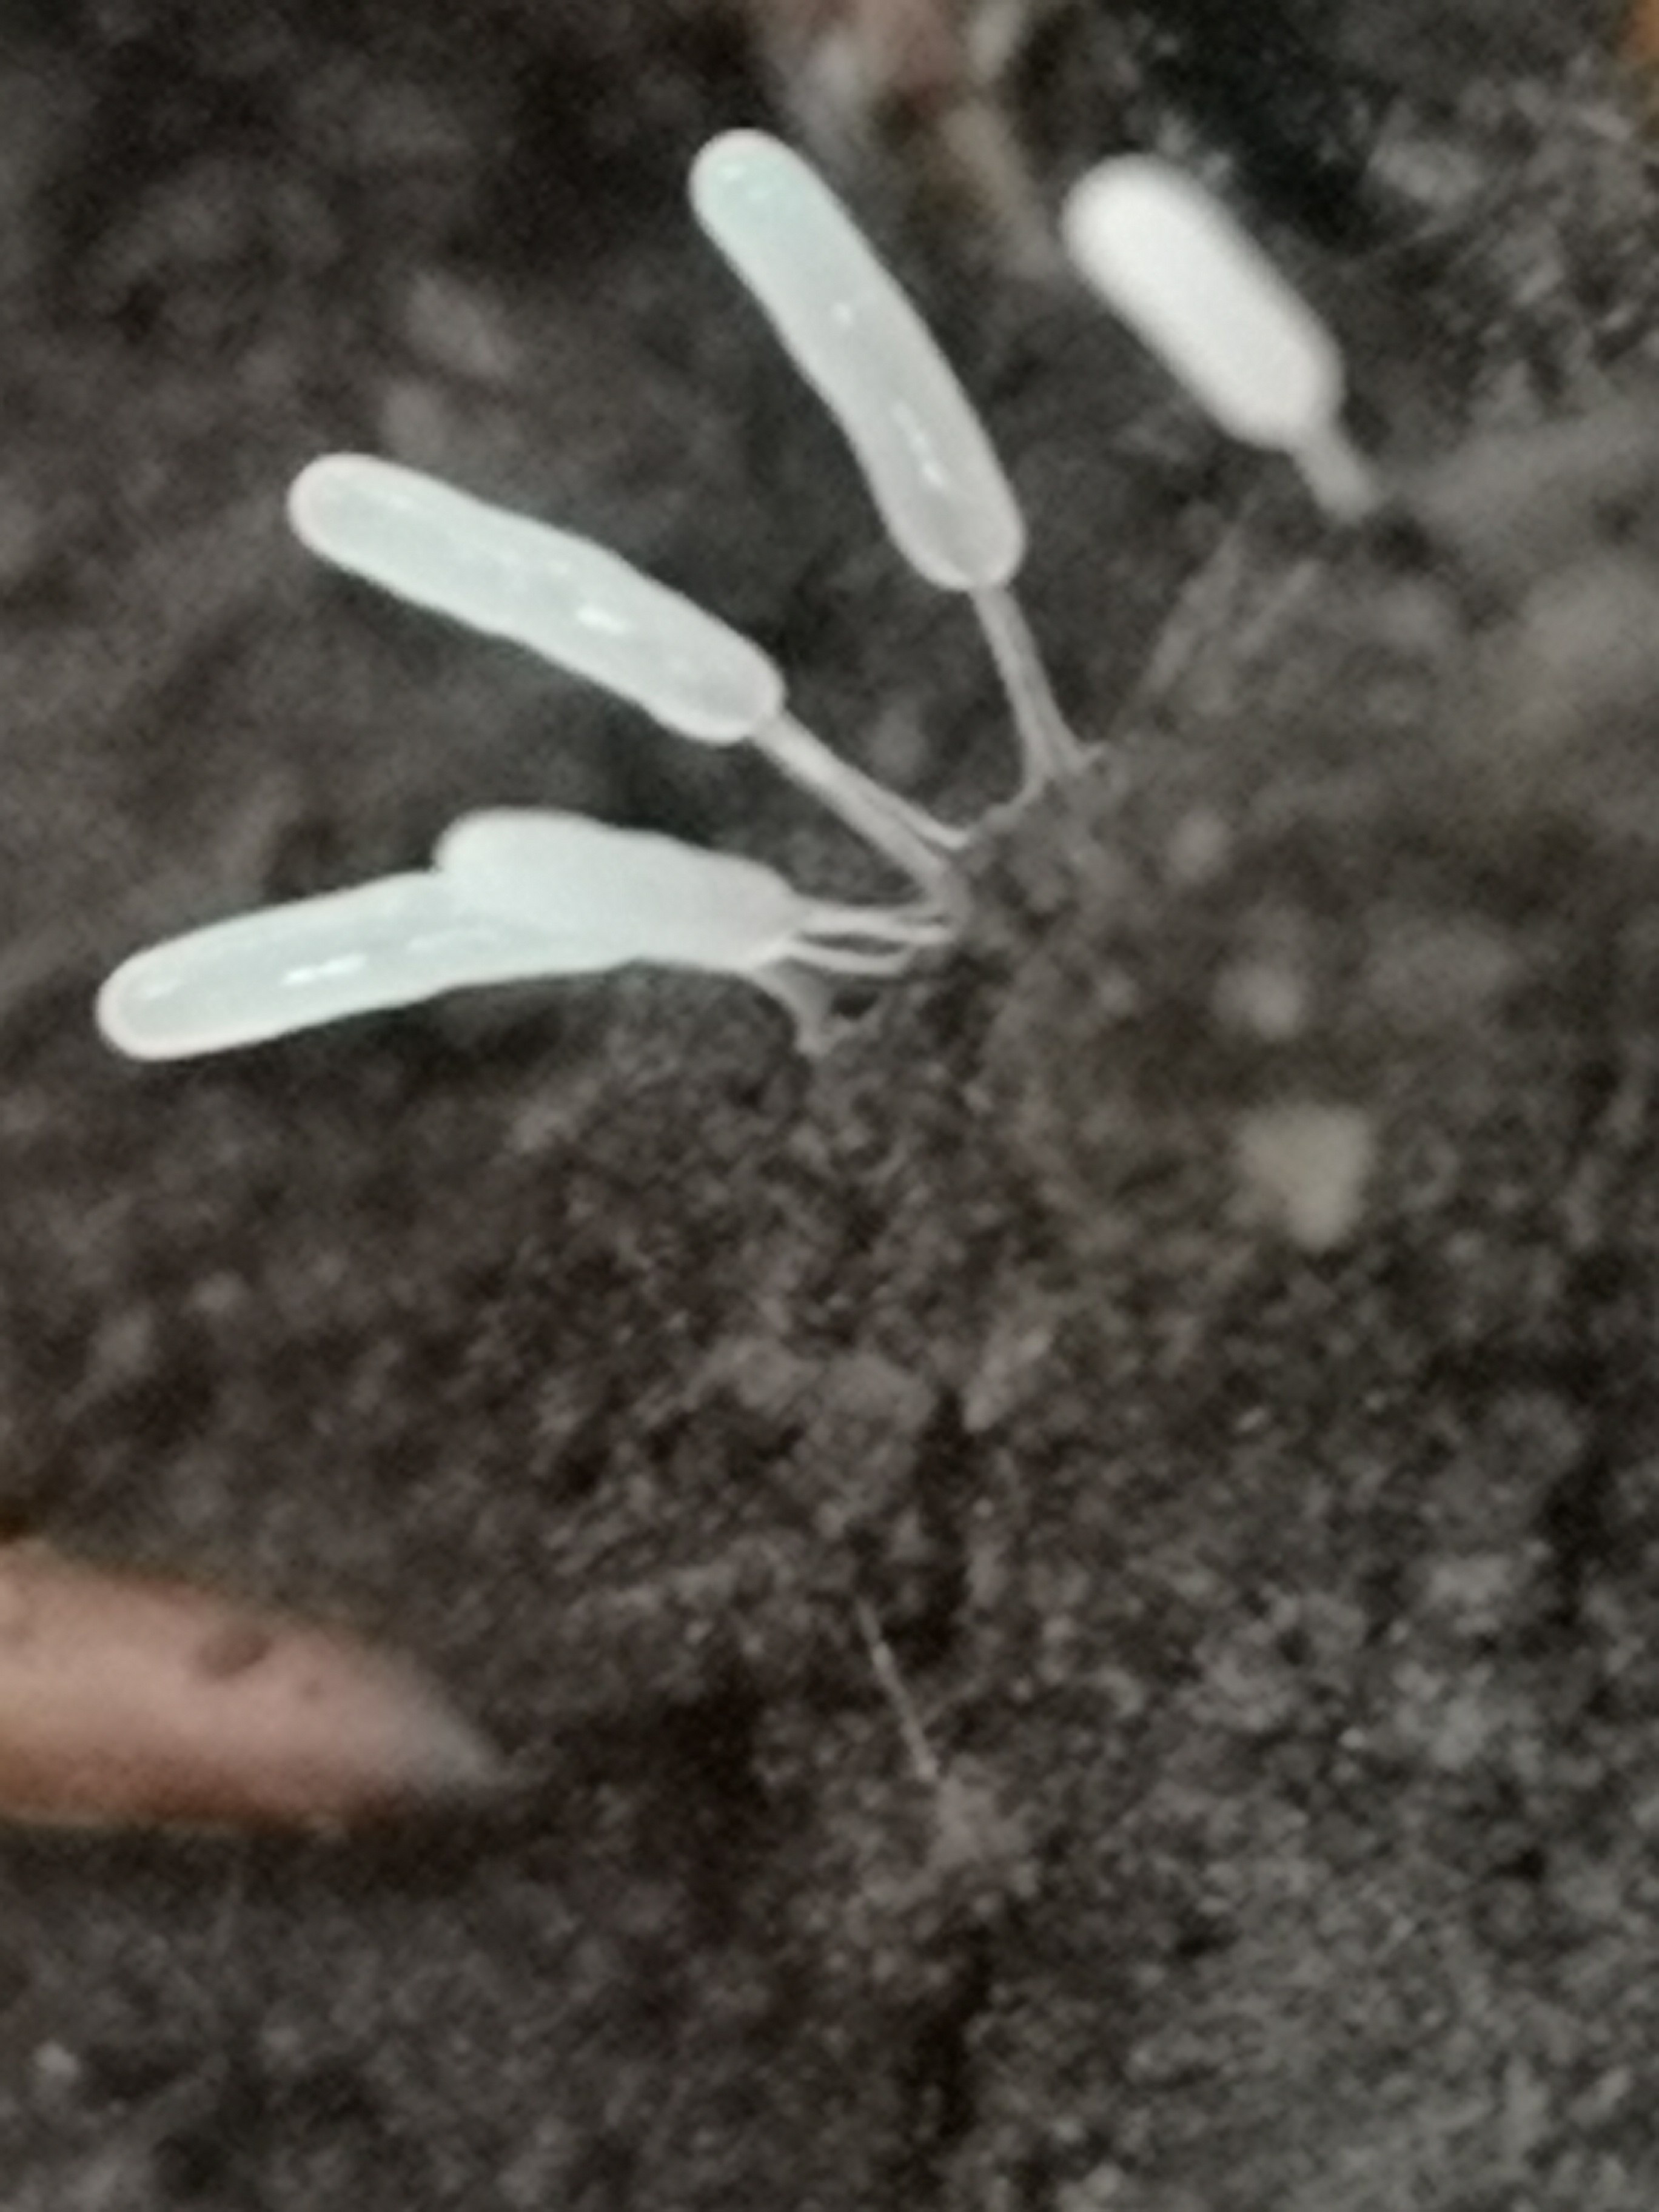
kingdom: Protozoa
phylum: Mycetozoa
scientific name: Mycetozoa
